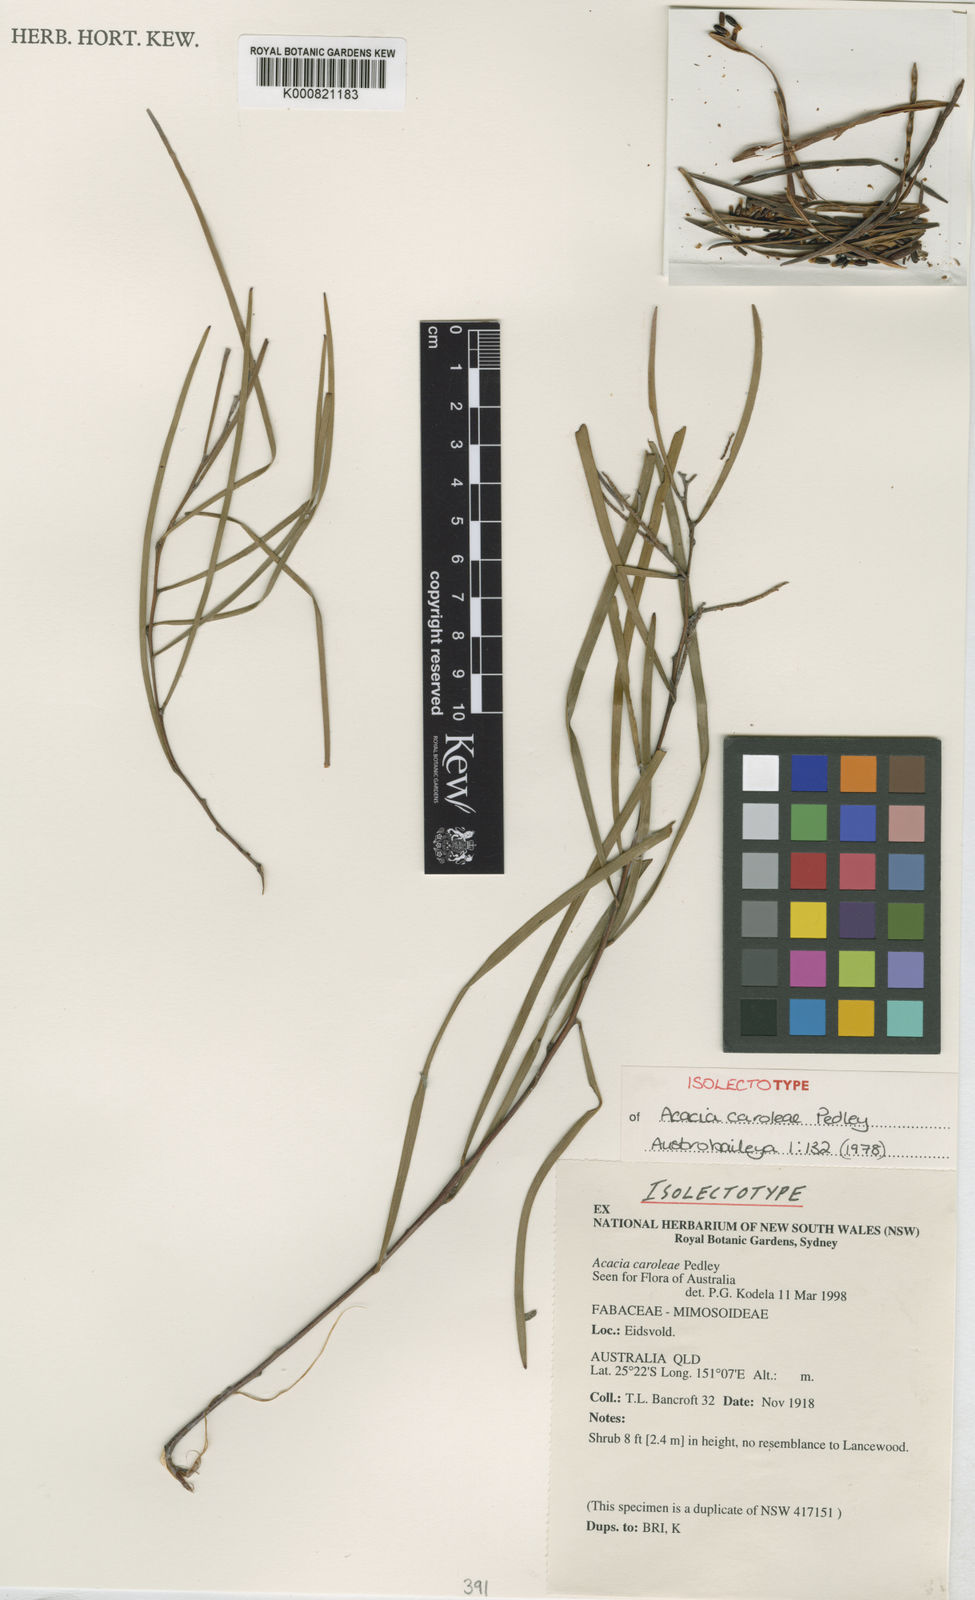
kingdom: Plantae
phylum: Tracheophyta
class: Magnoliopsida
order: Fabales
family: Fabaceae
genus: Acacia
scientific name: Acacia caroleae
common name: Narrow-leaf currawang
